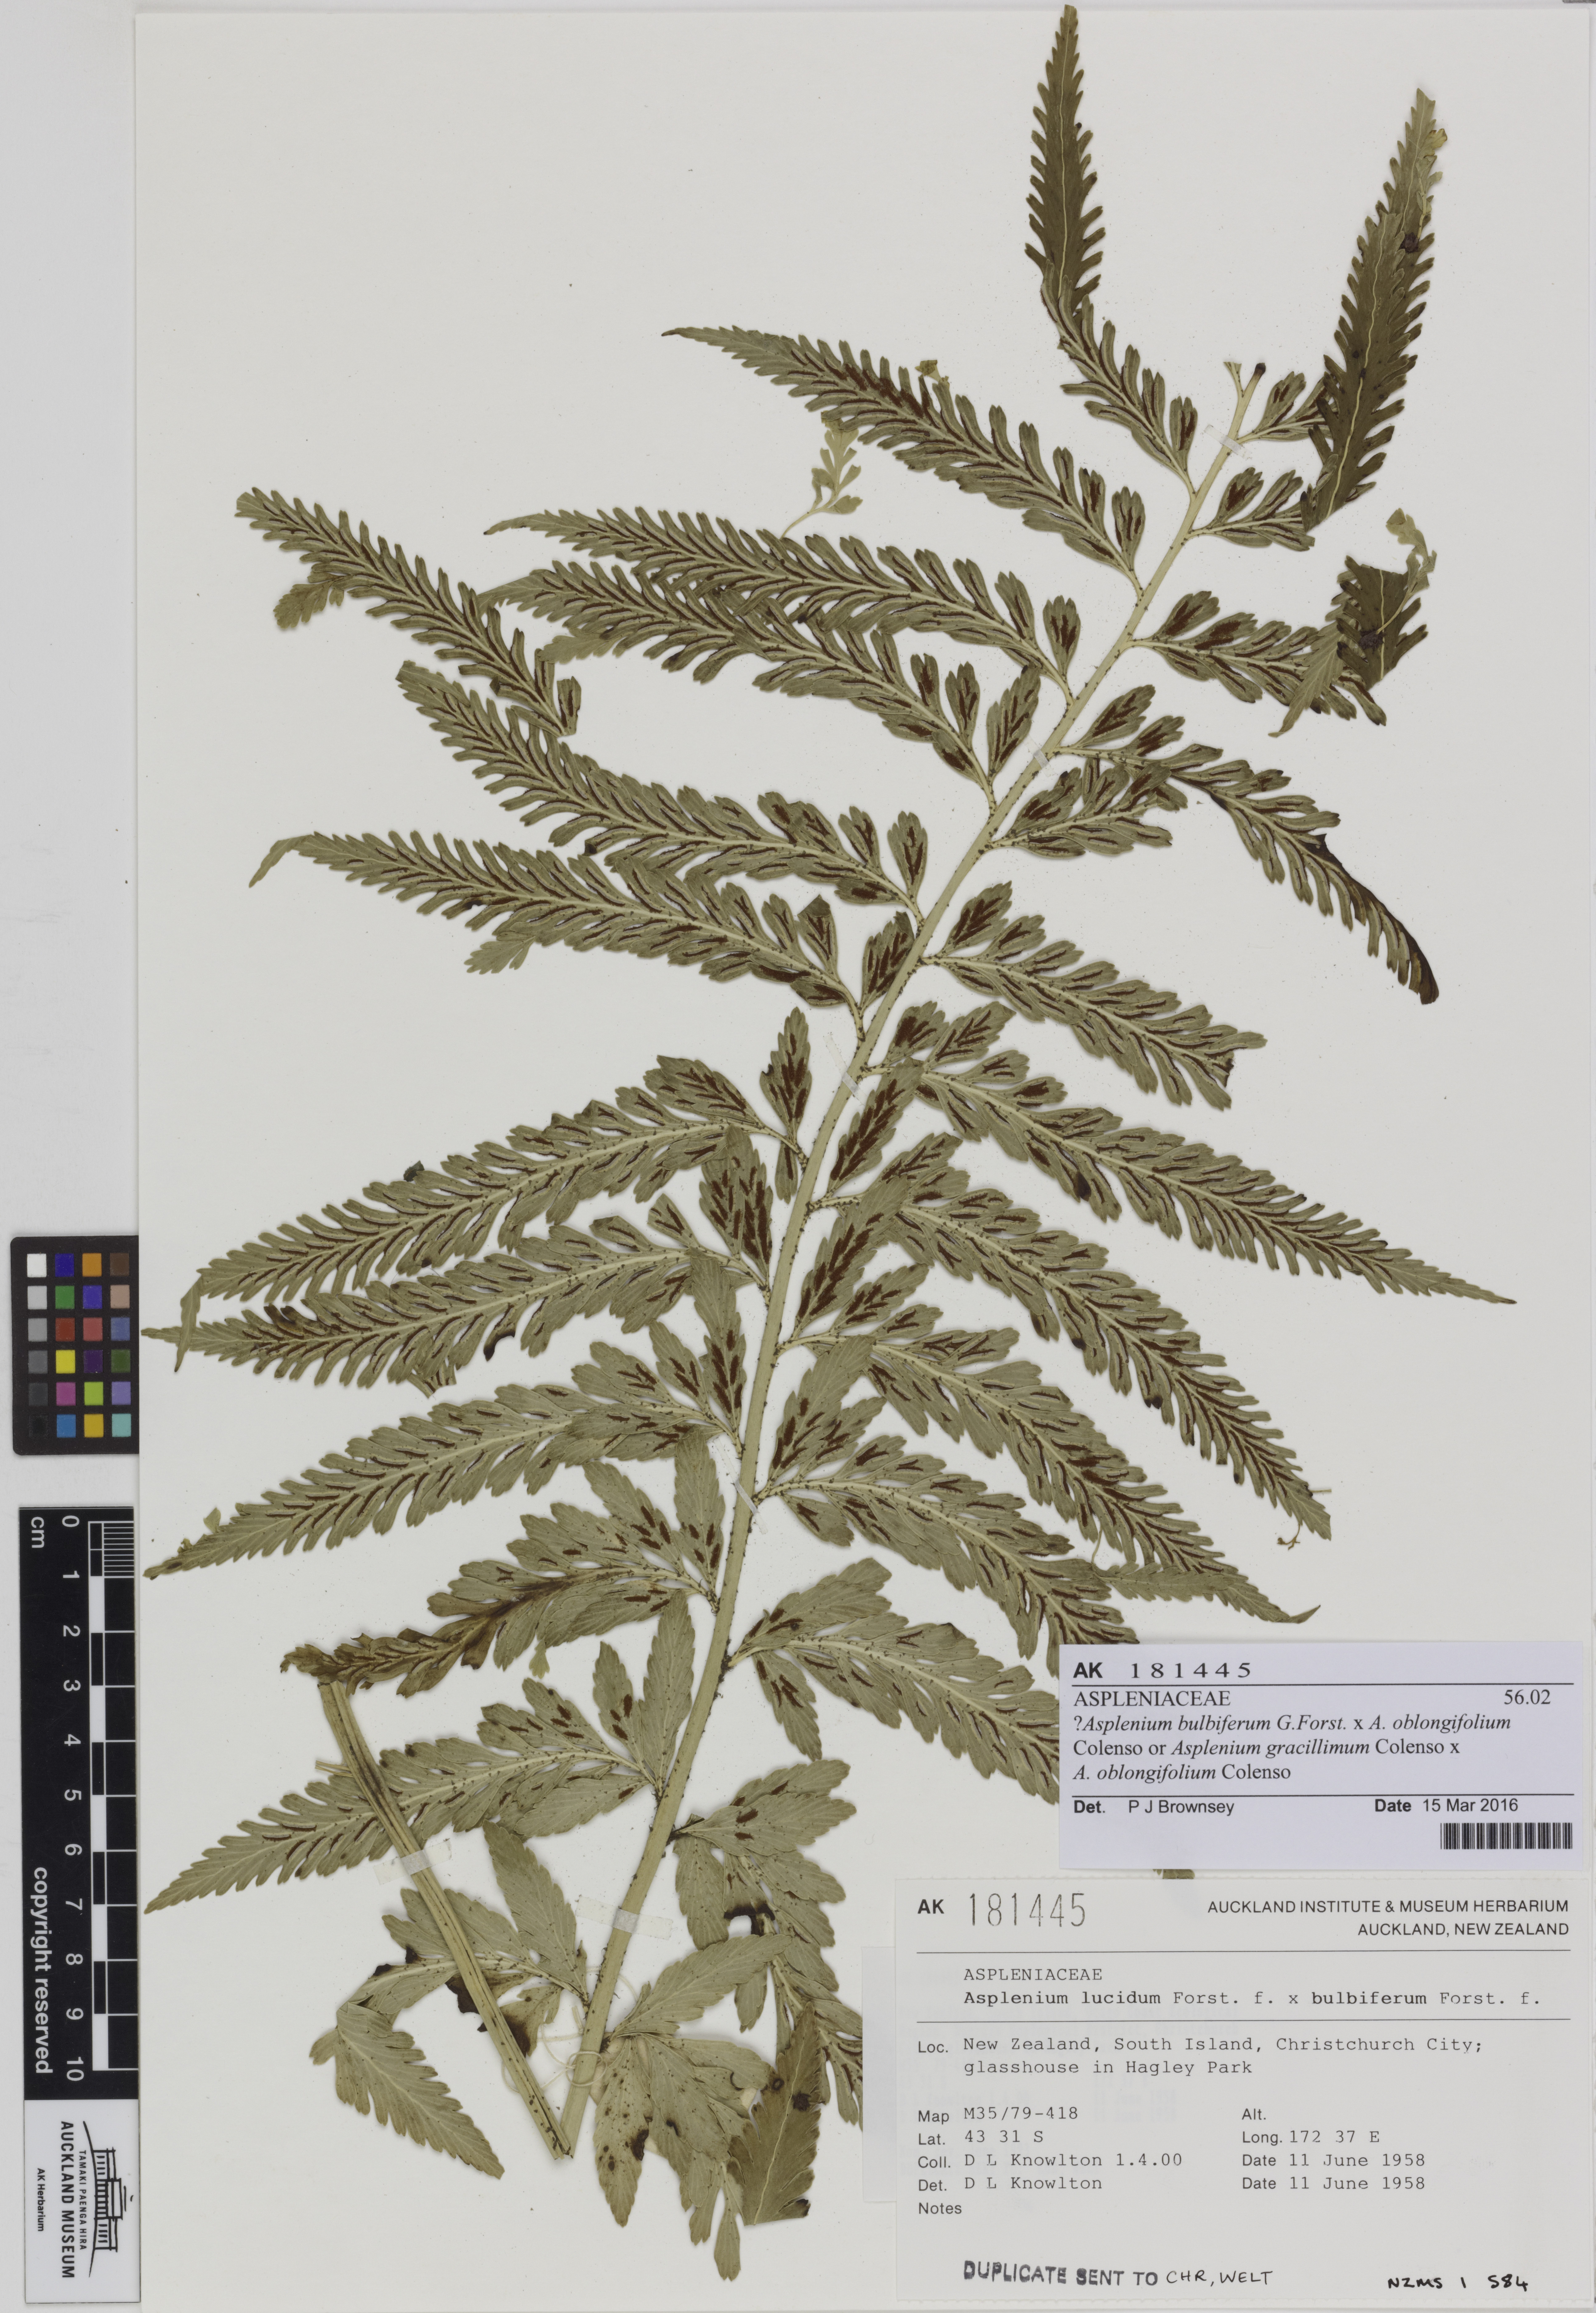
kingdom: Plantae
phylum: Tracheophyta
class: Polypodiopsida
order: Polypodiales
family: Aspleniaceae
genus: Asplenium
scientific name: Asplenium
